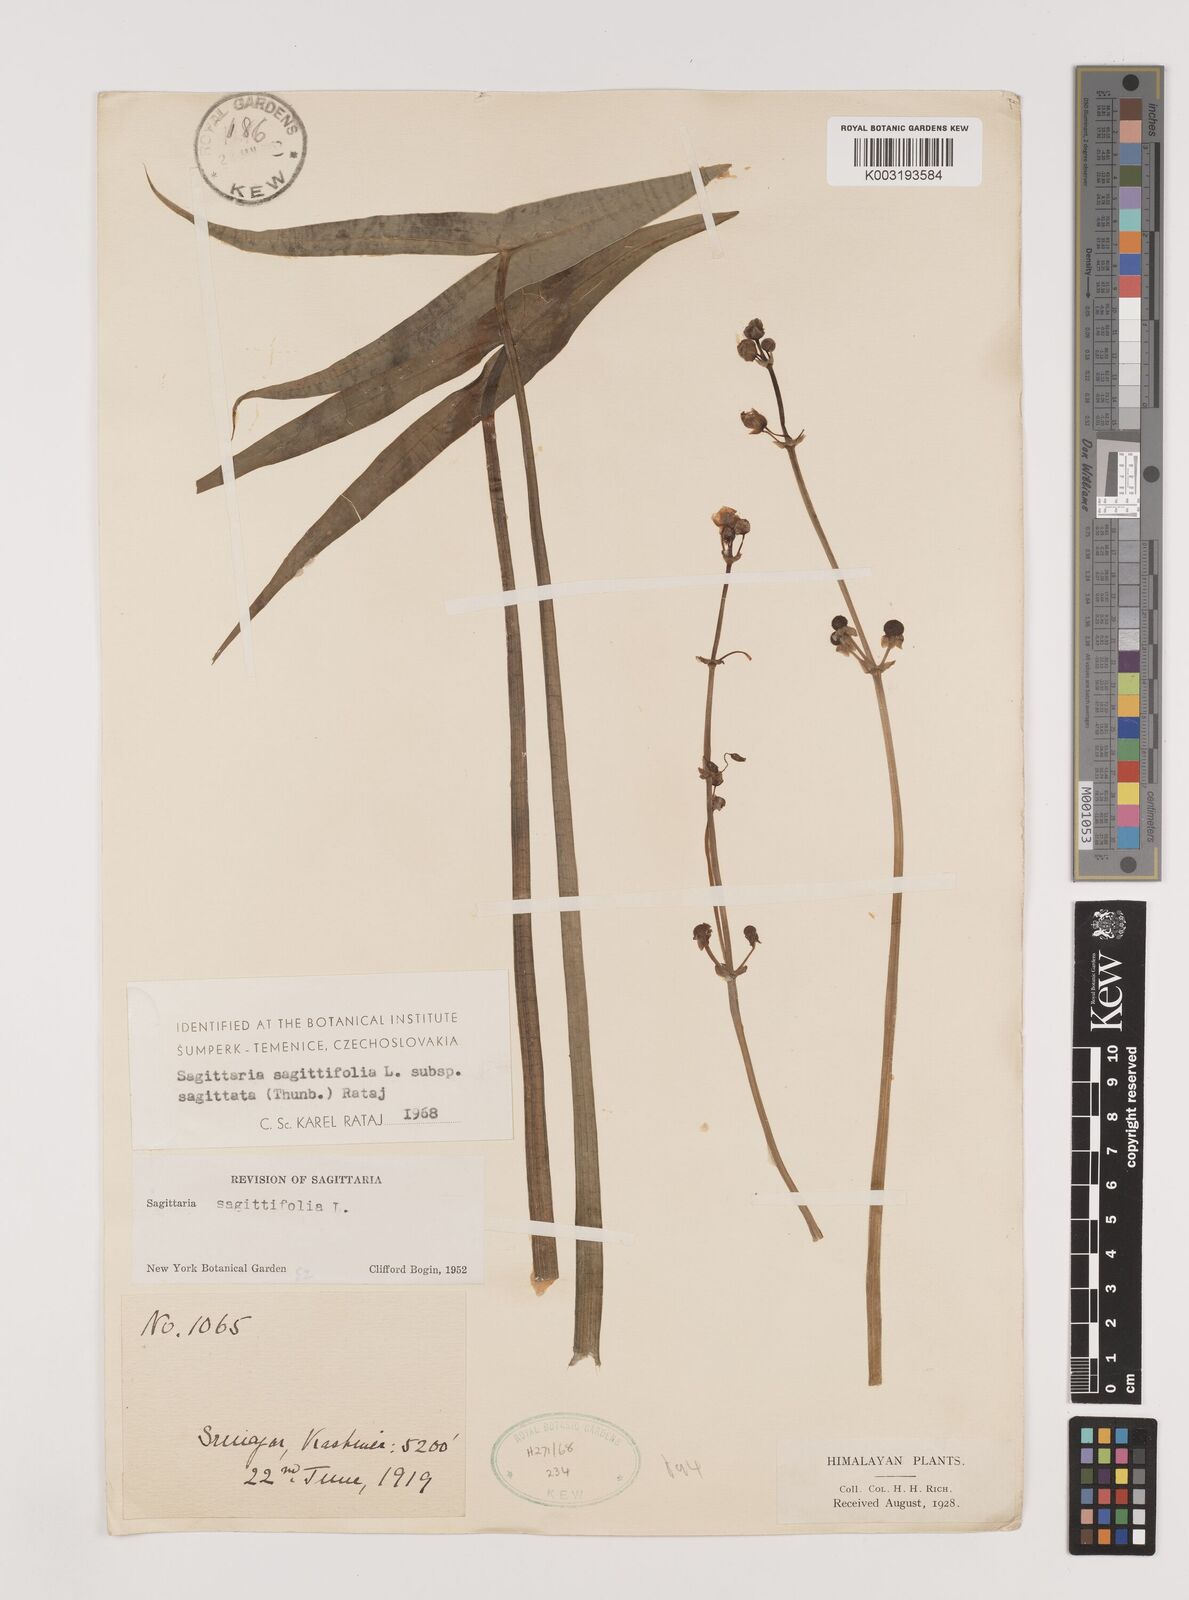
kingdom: Plantae
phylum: Tracheophyta
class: Liliopsida
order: Alismatales
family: Alismataceae
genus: Sagittaria
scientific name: Sagittaria sagittifolia
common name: Arrowhead
